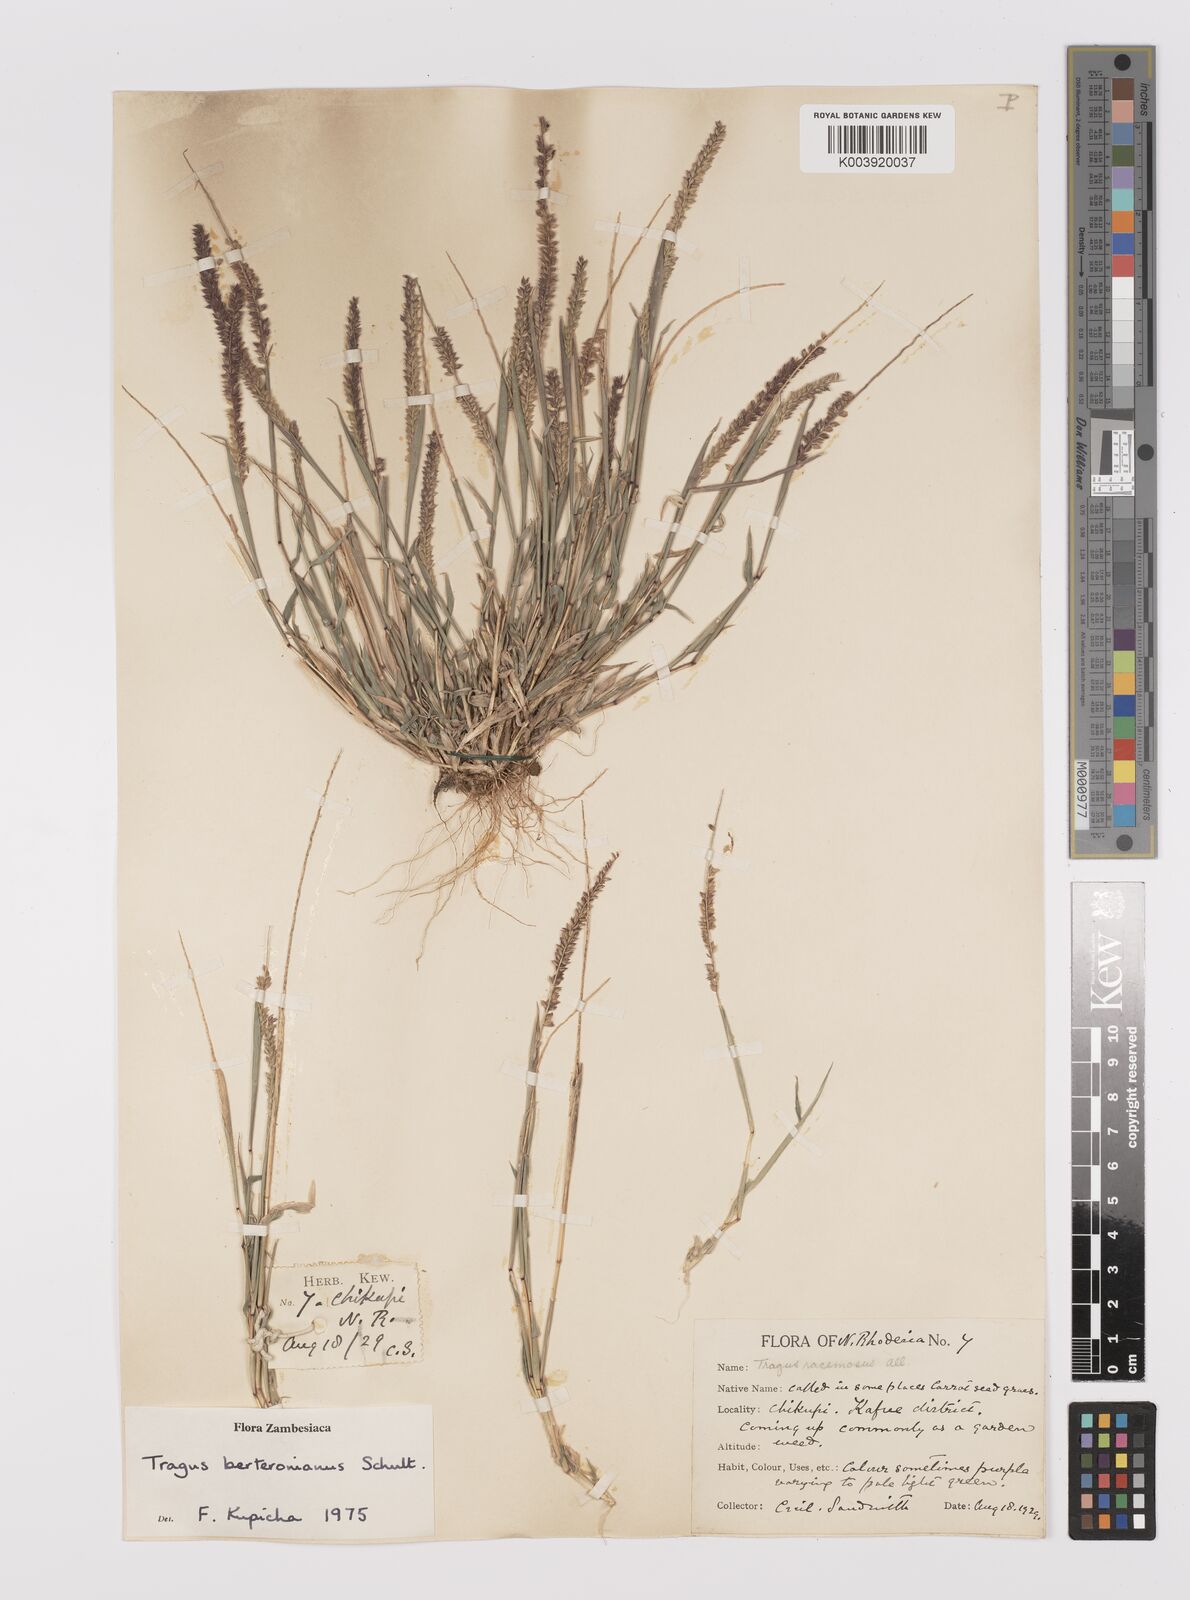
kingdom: Plantae
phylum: Tracheophyta
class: Liliopsida
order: Poales
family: Poaceae
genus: Tragus
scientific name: Tragus berteronianus
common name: African bur-grass
